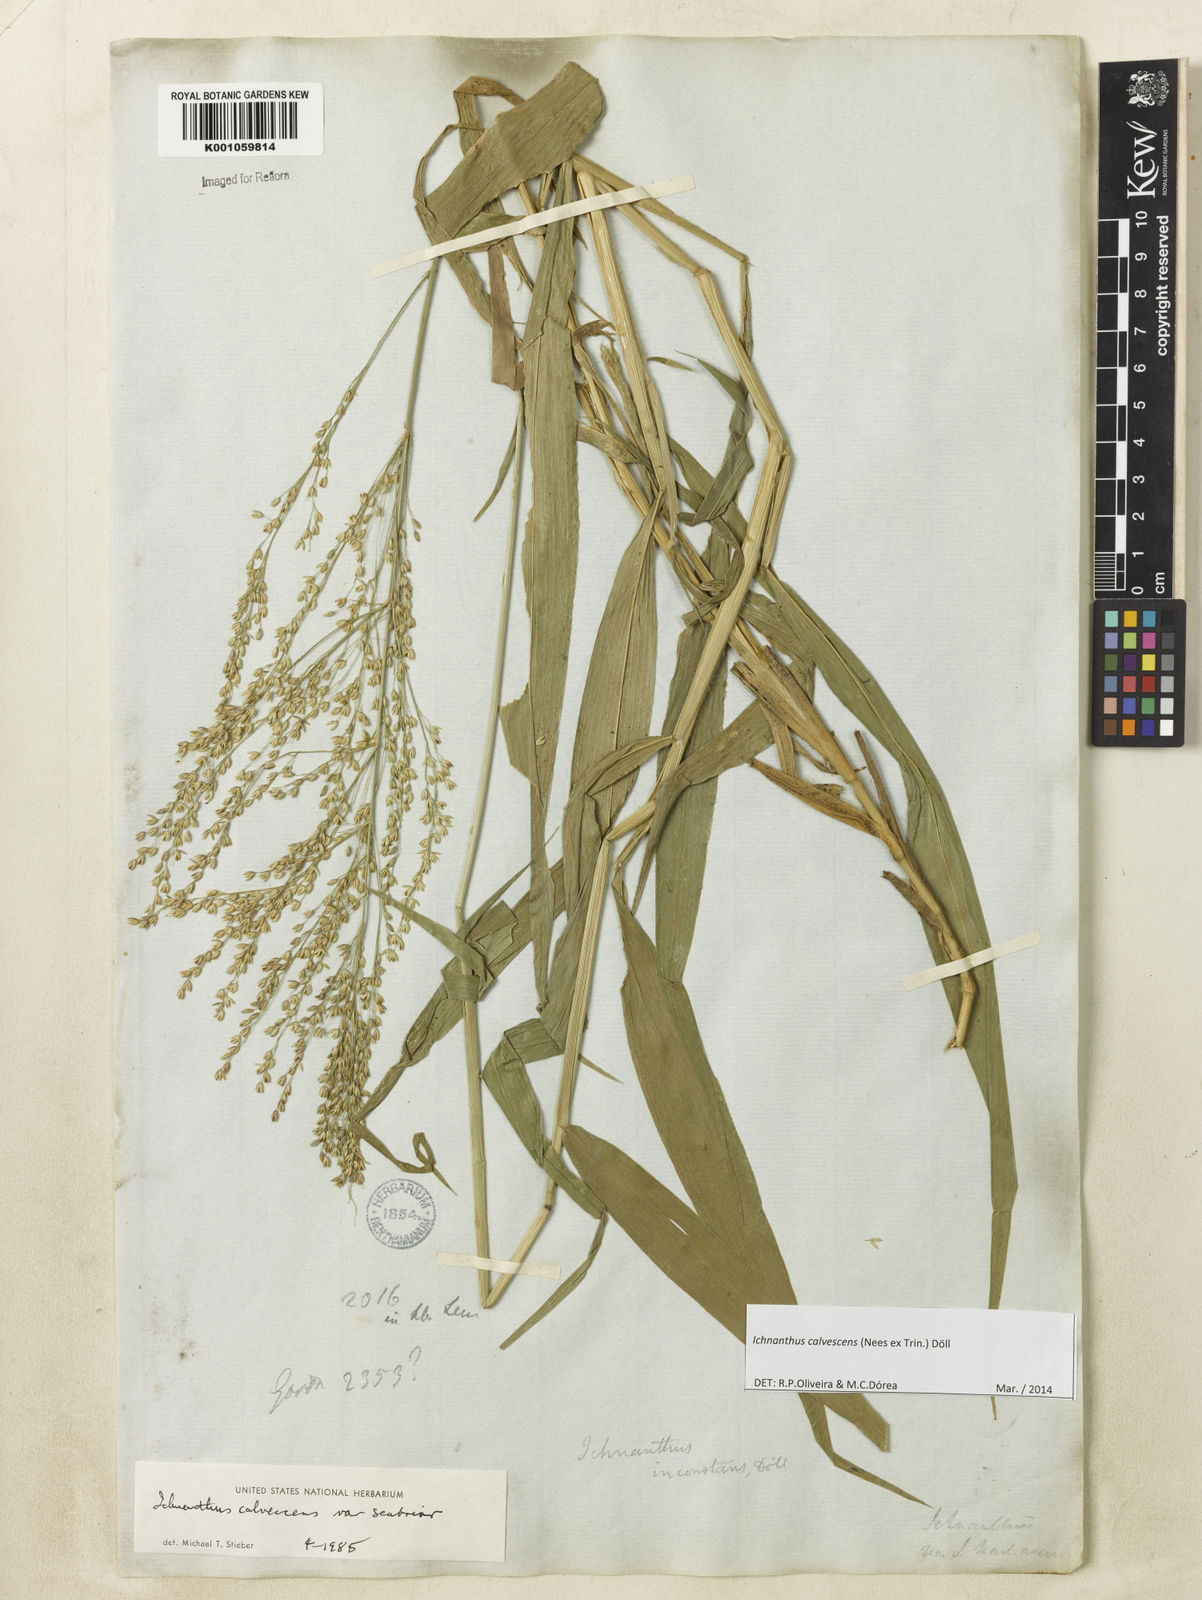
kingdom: Plantae
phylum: Tracheophyta
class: Liliopsida
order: Poales
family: Poaceae
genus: Ichnanthus
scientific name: Ichnanthus
